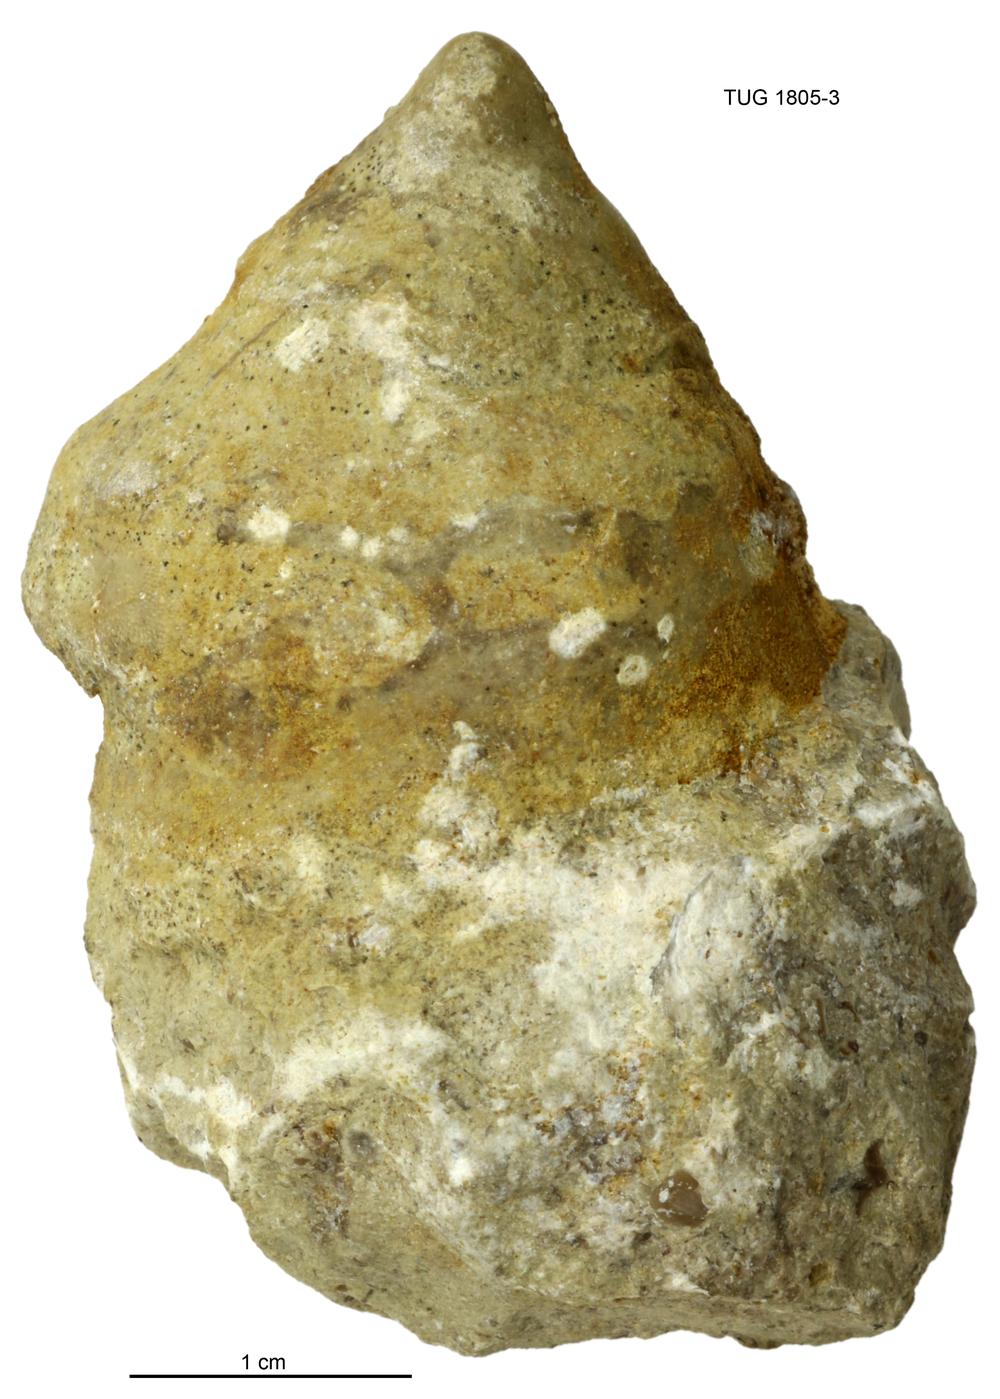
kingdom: Animalia
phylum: Mollusca
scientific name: Mollusca
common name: Mollusca
